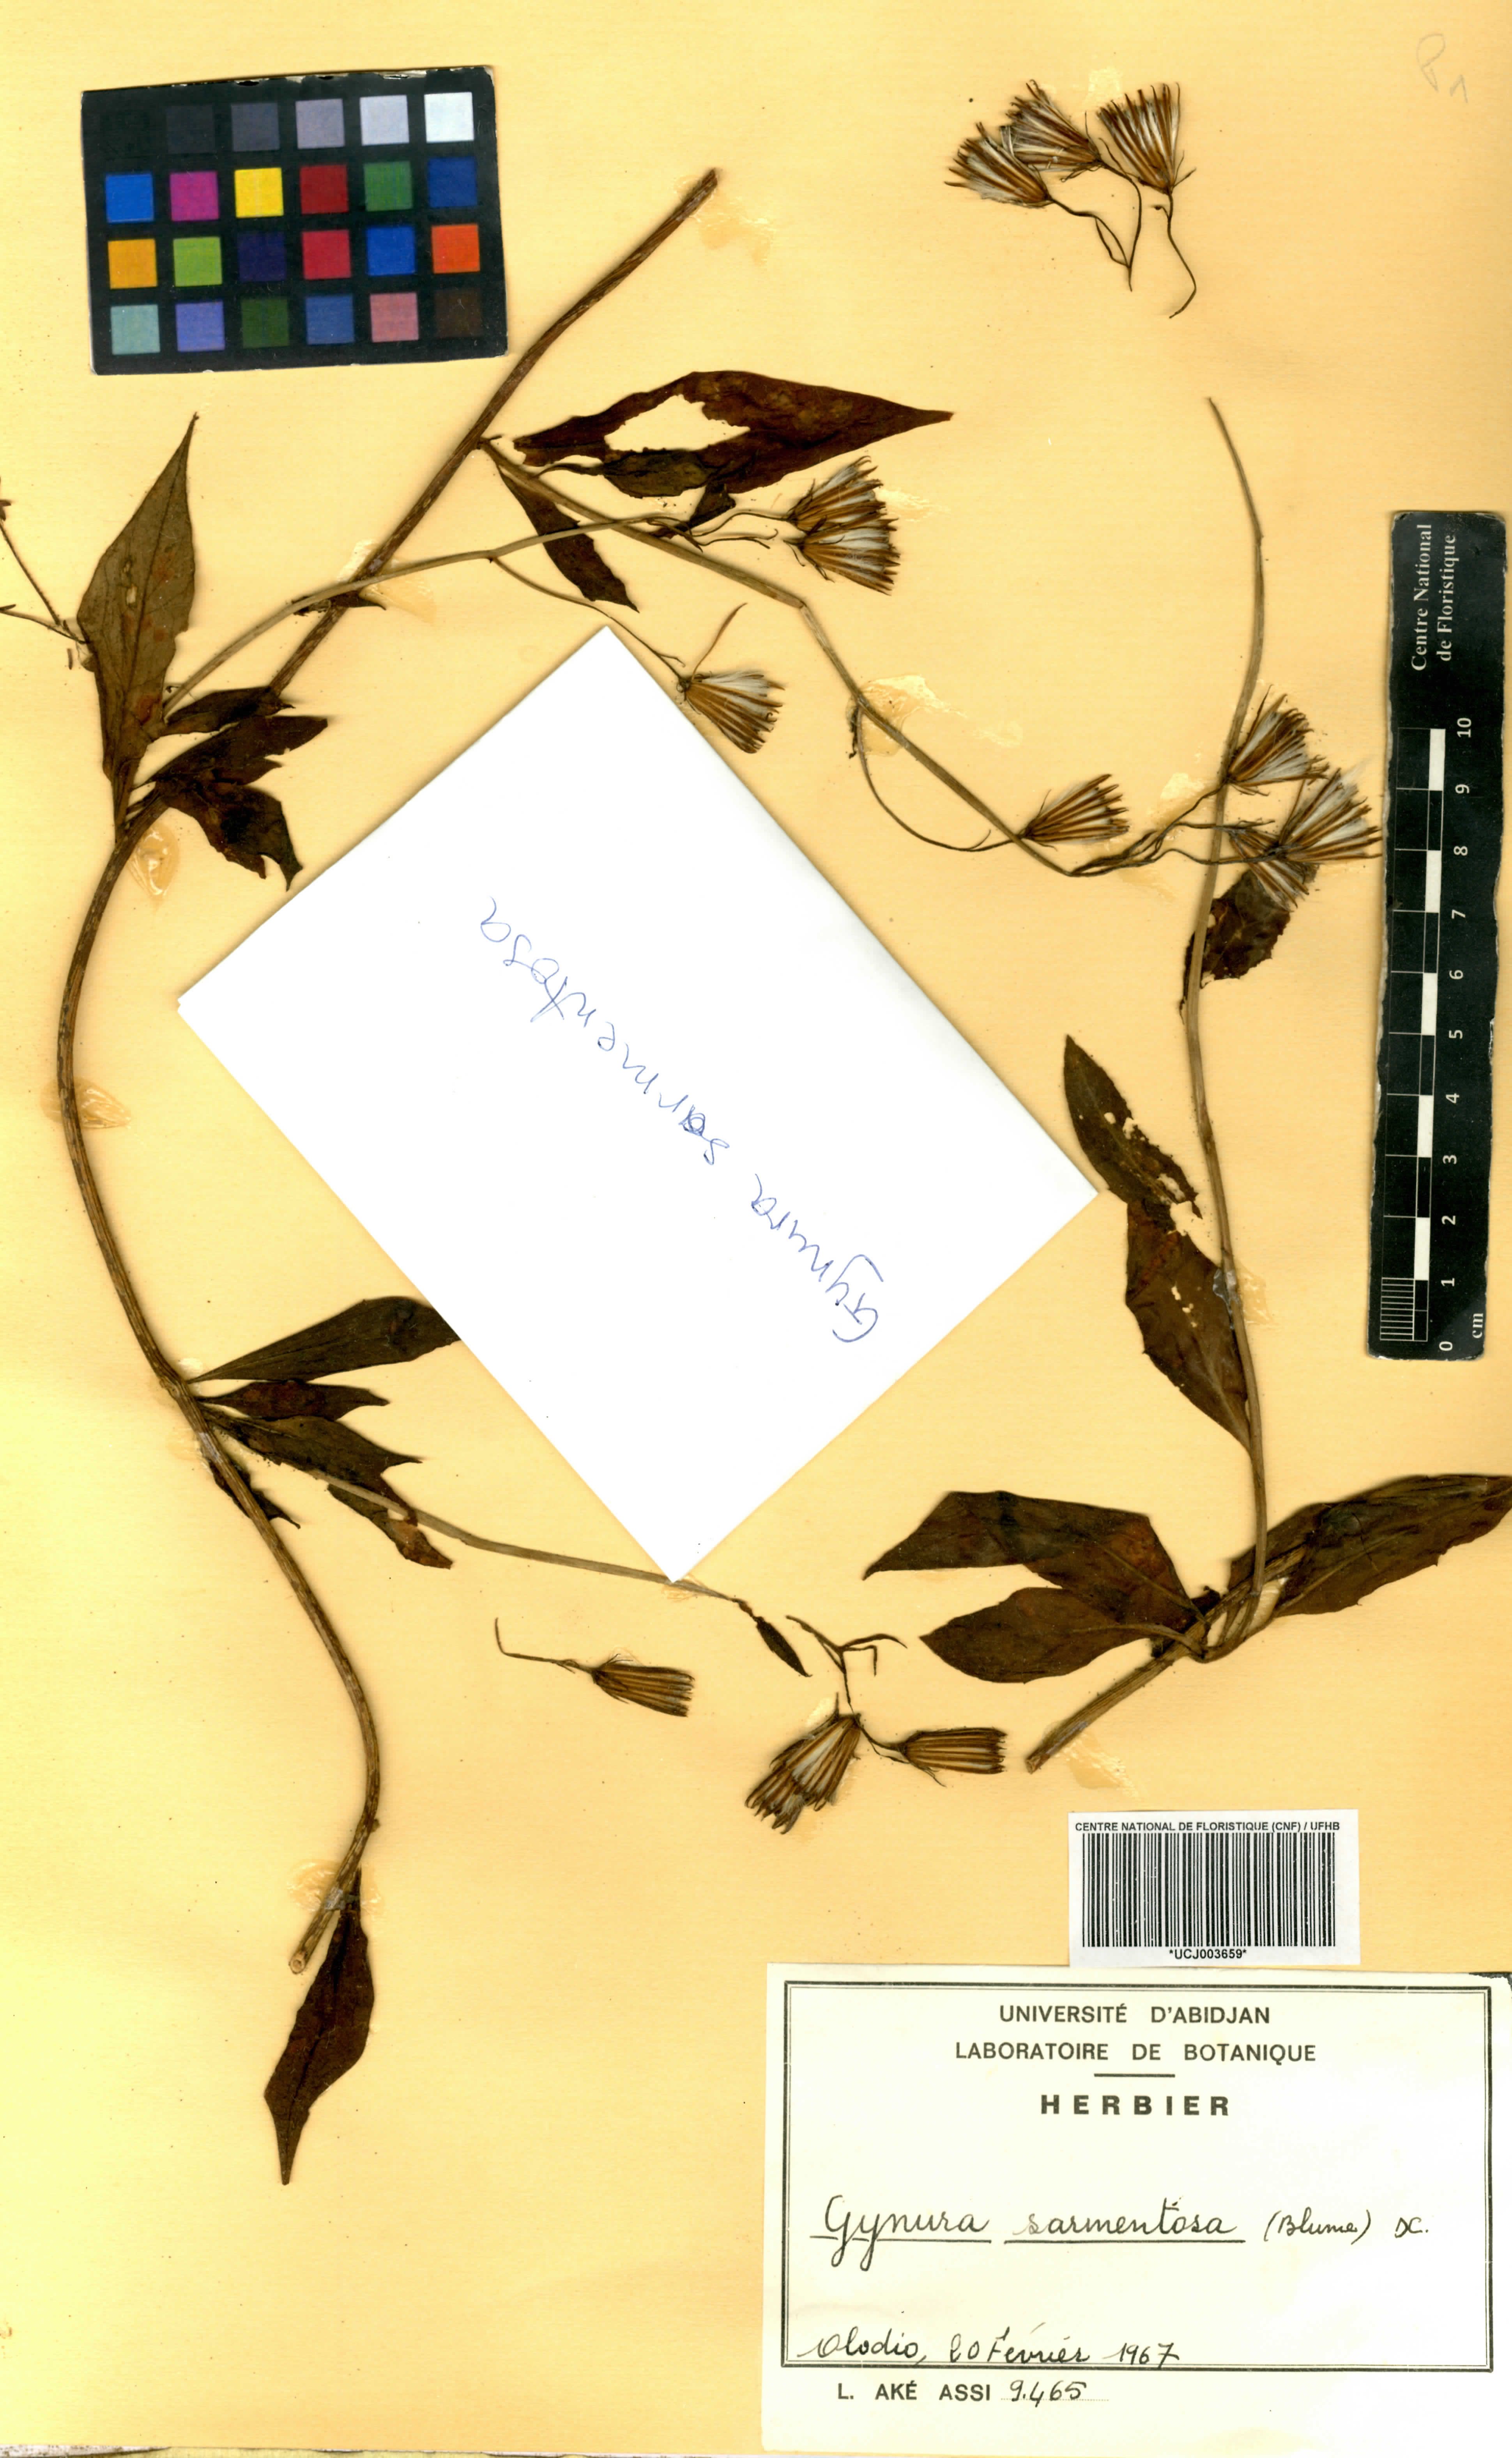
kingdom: Plantae
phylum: Tracheophyta
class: Magnoliopsida
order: Asterales
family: Asteraceae
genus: Gynura
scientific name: Gynura procumbens
